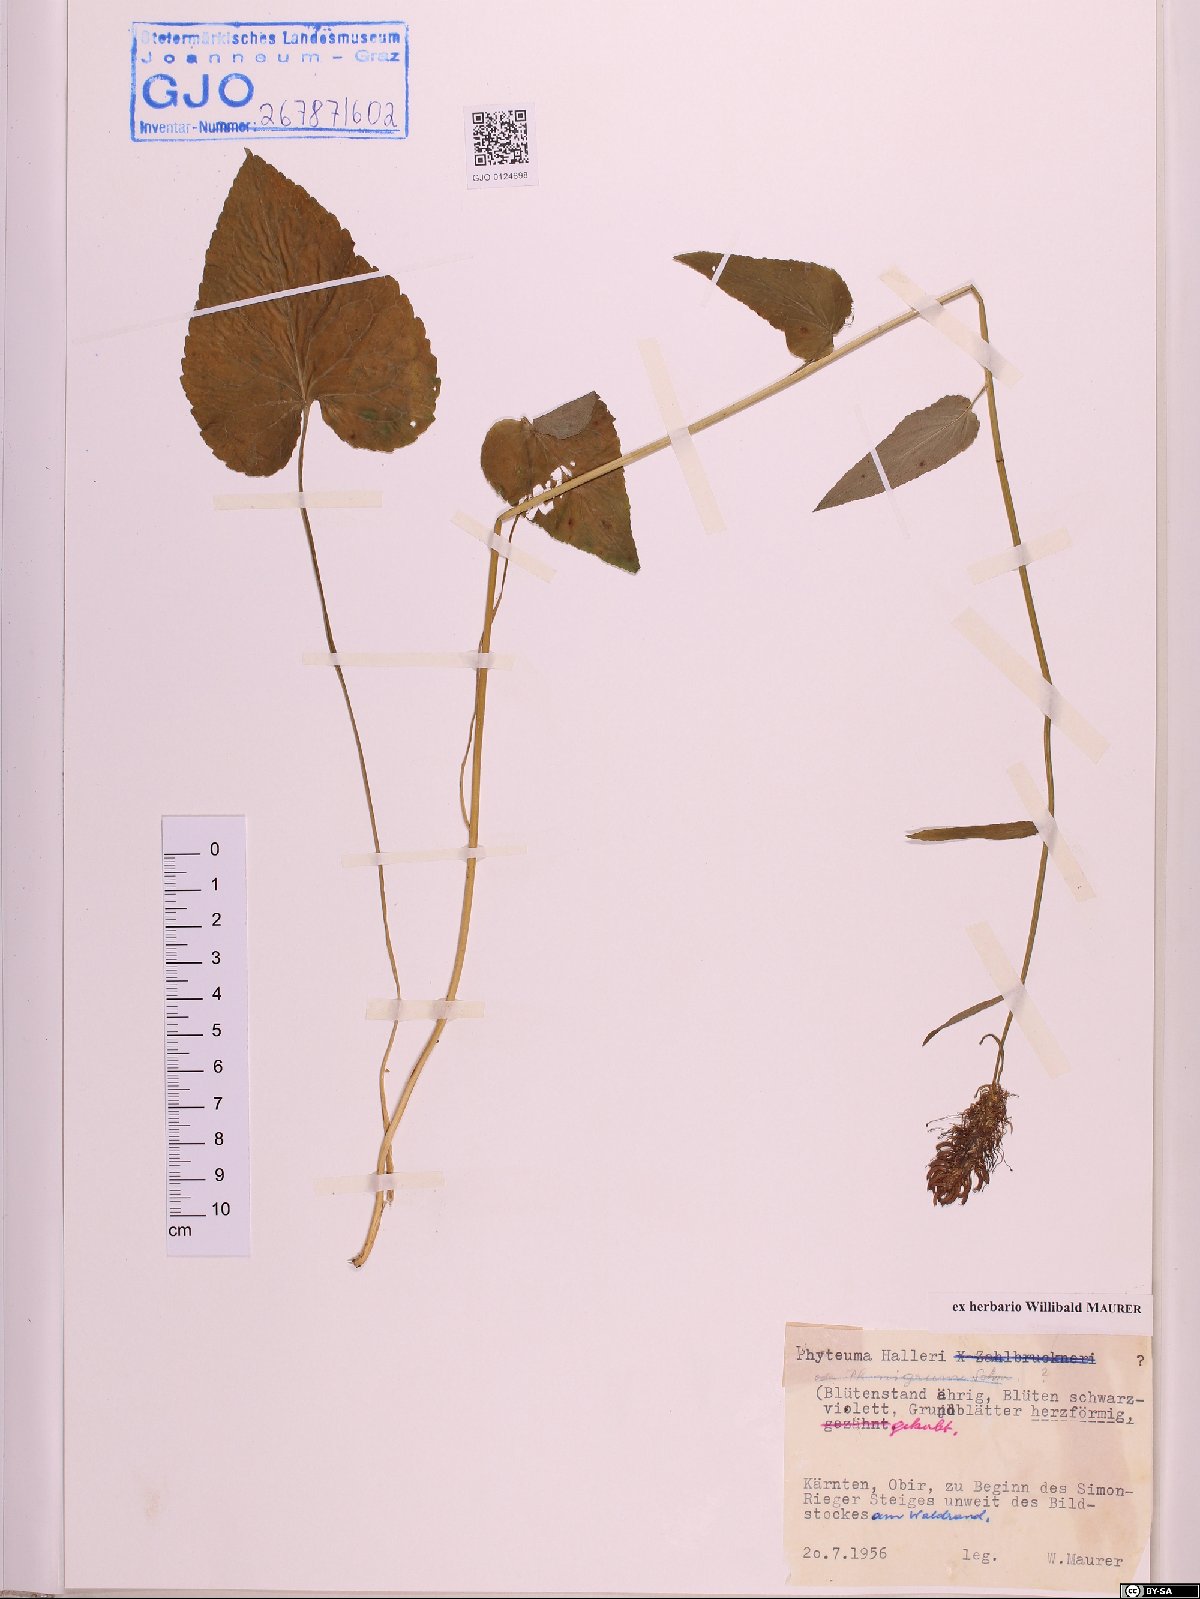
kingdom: Plantae
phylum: Tracheophyta
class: Magnoliopsida
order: Asterales
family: Campanulaceae
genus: Phyteuma
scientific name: Phyteuma ovatum
